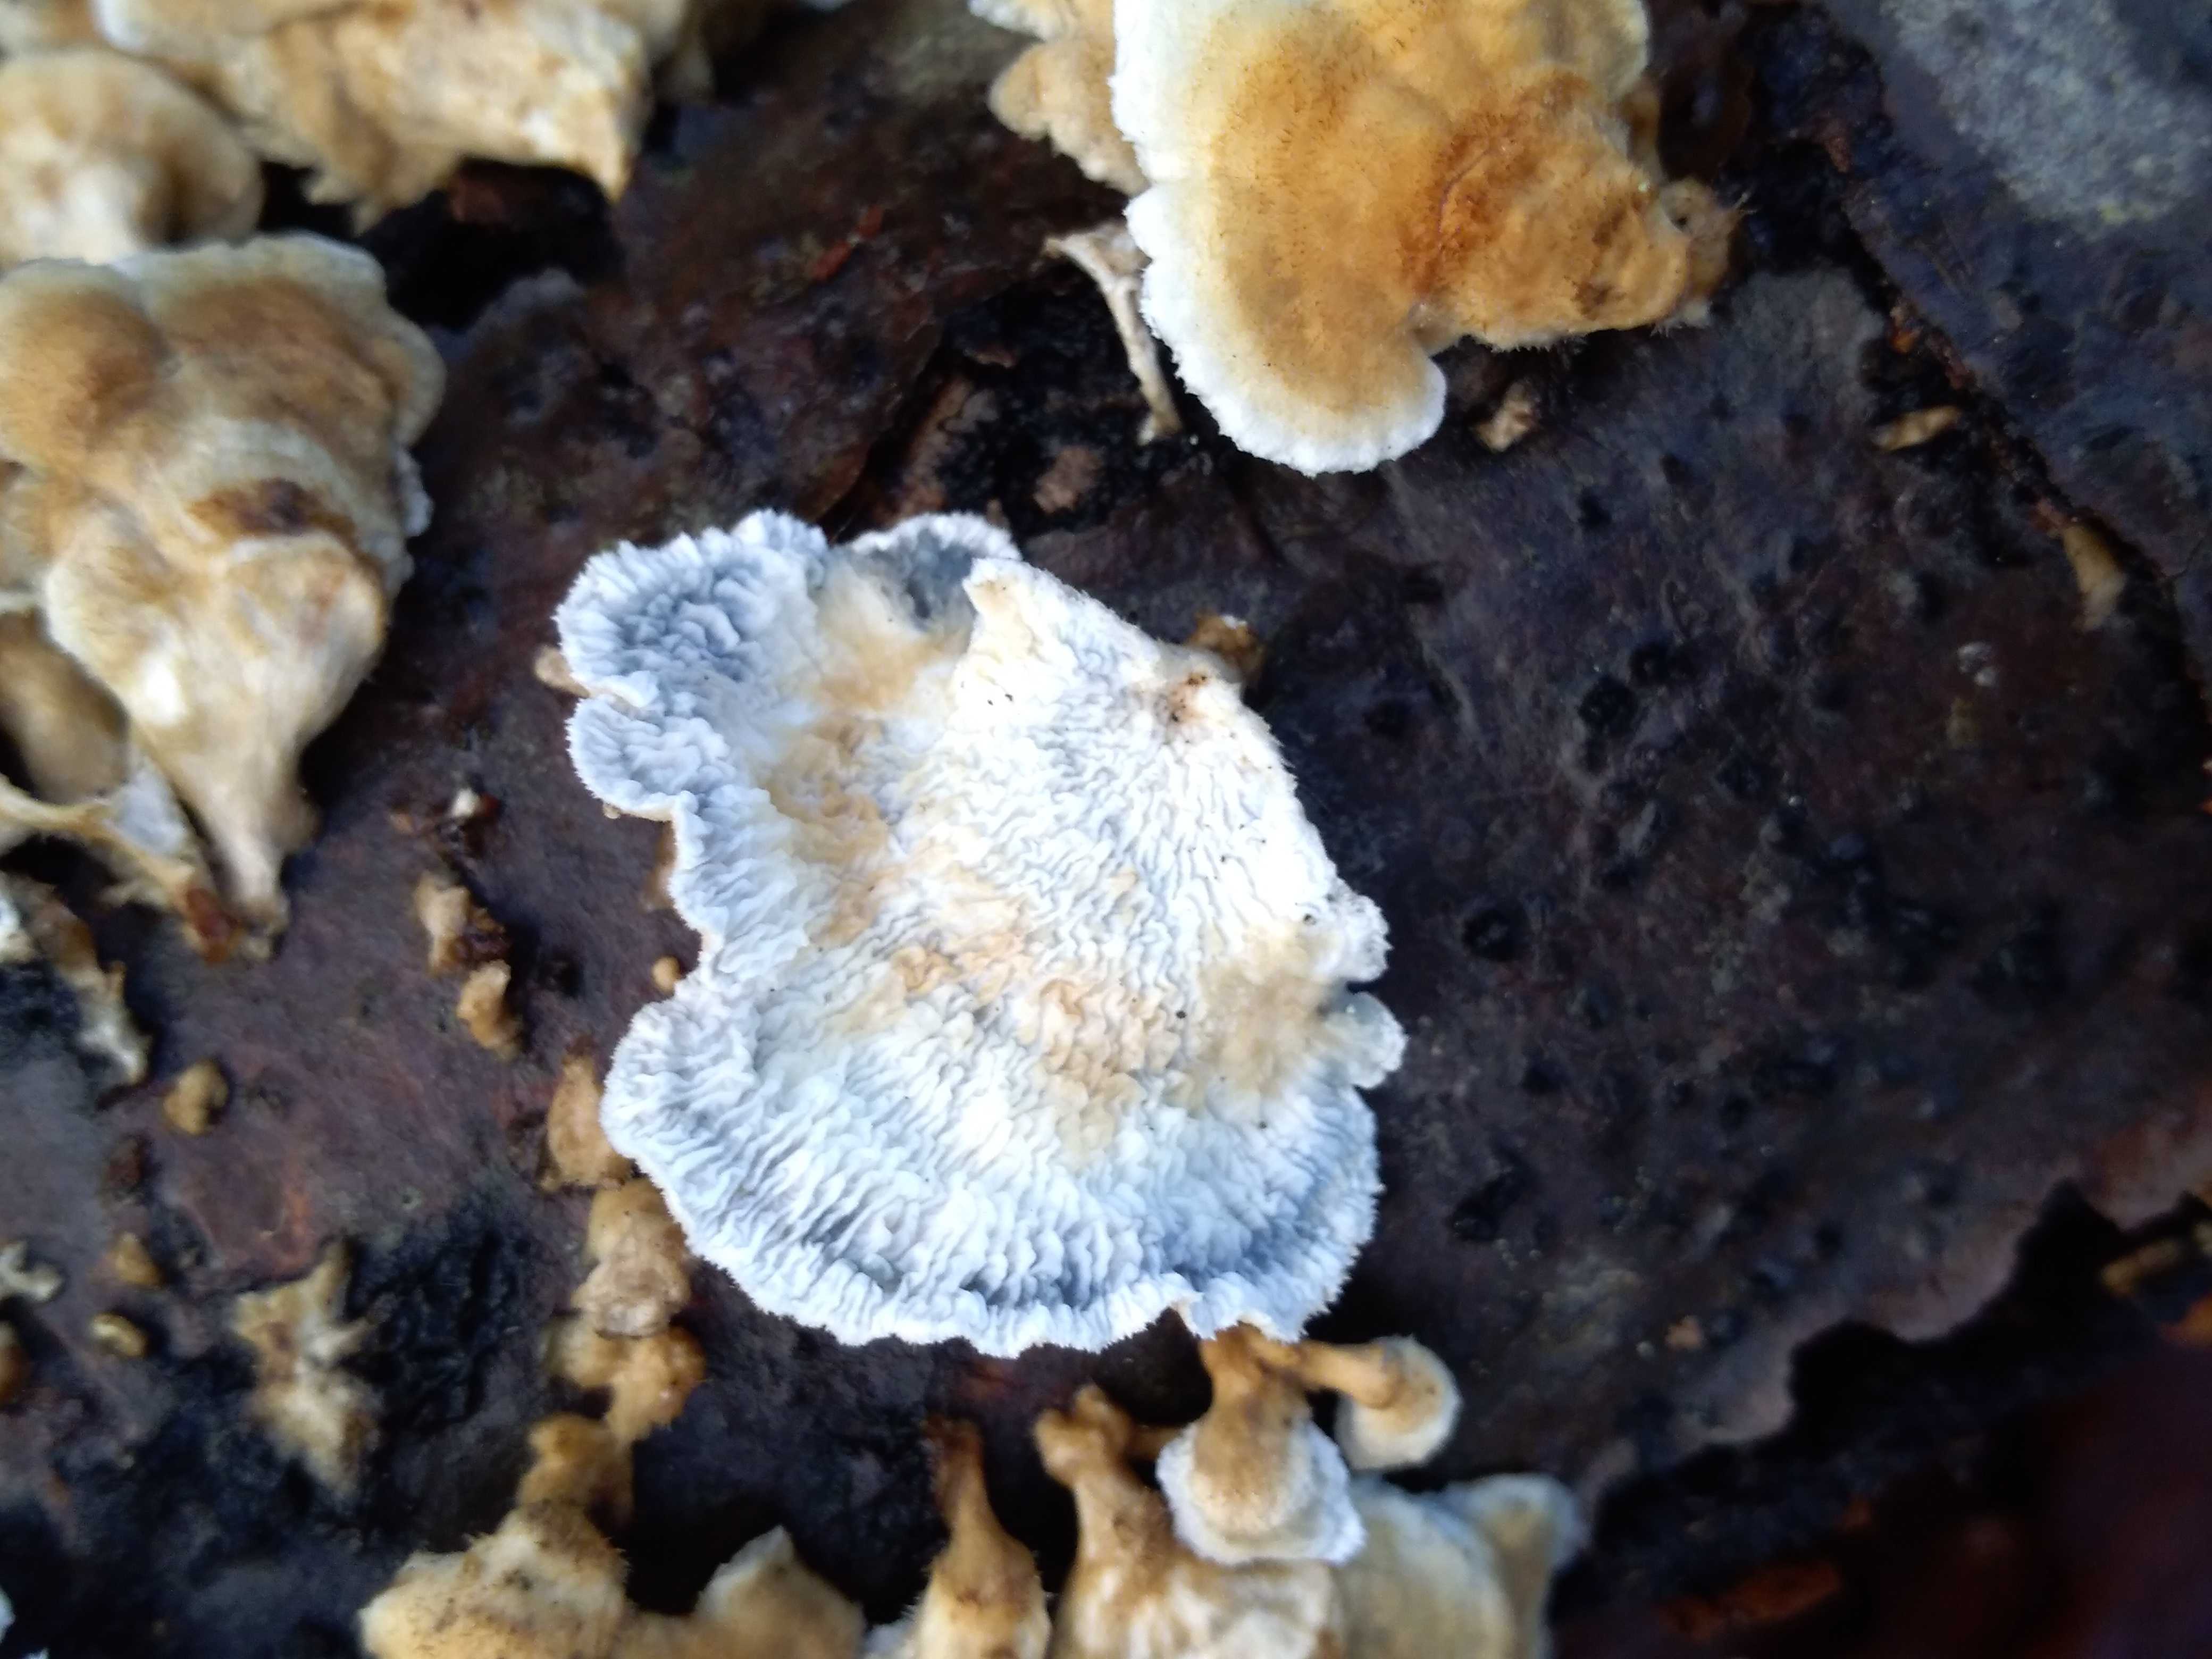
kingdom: Fungi
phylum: Basidiomycota
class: Agaricomycetes
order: Amylocorticiales
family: Amylocorticiaceae
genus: Plicaturopsis
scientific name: Plicaturopsis crispa
